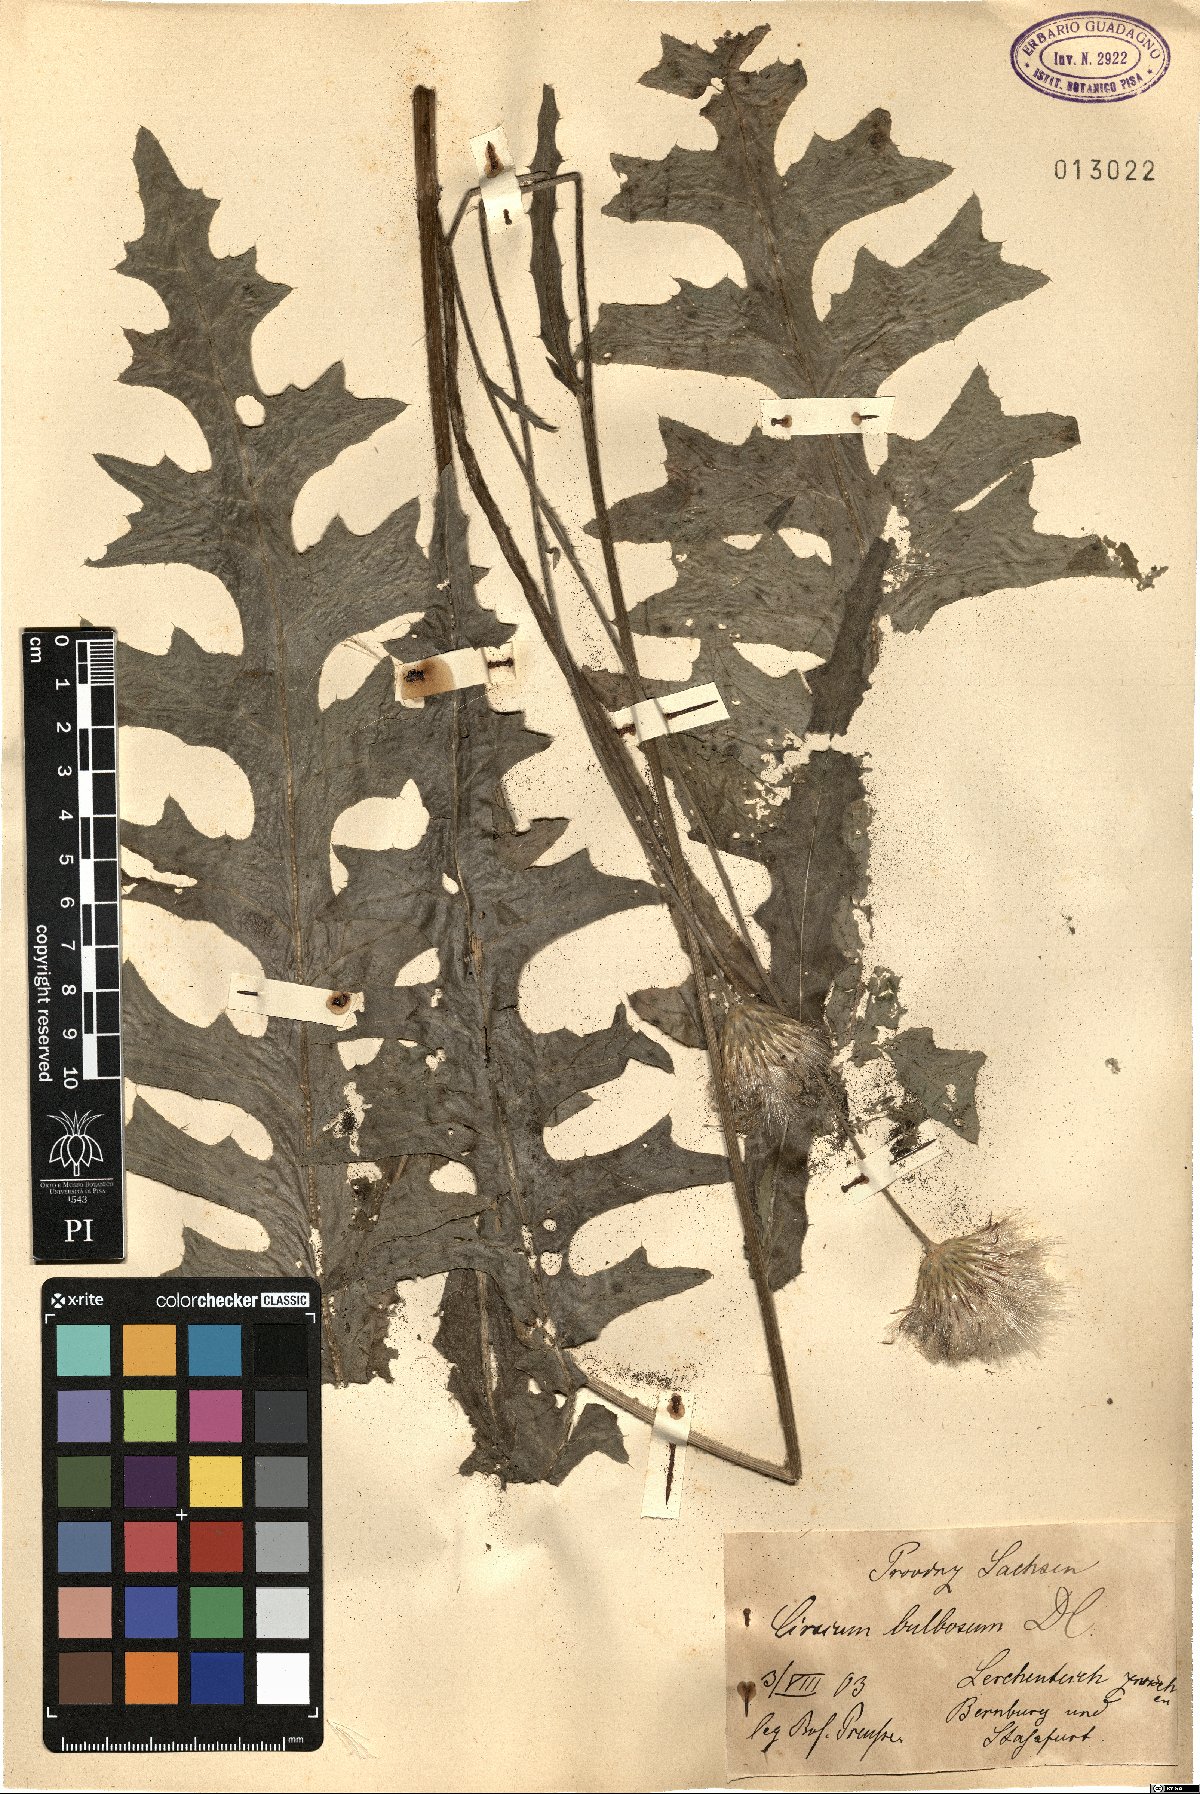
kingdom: Plantae
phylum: Tracheophyta
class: Magnoliopsida
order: Asterales
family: Asteraceae
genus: Cirsium
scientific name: Cirsium tuberosum
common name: Tuberous thistle
